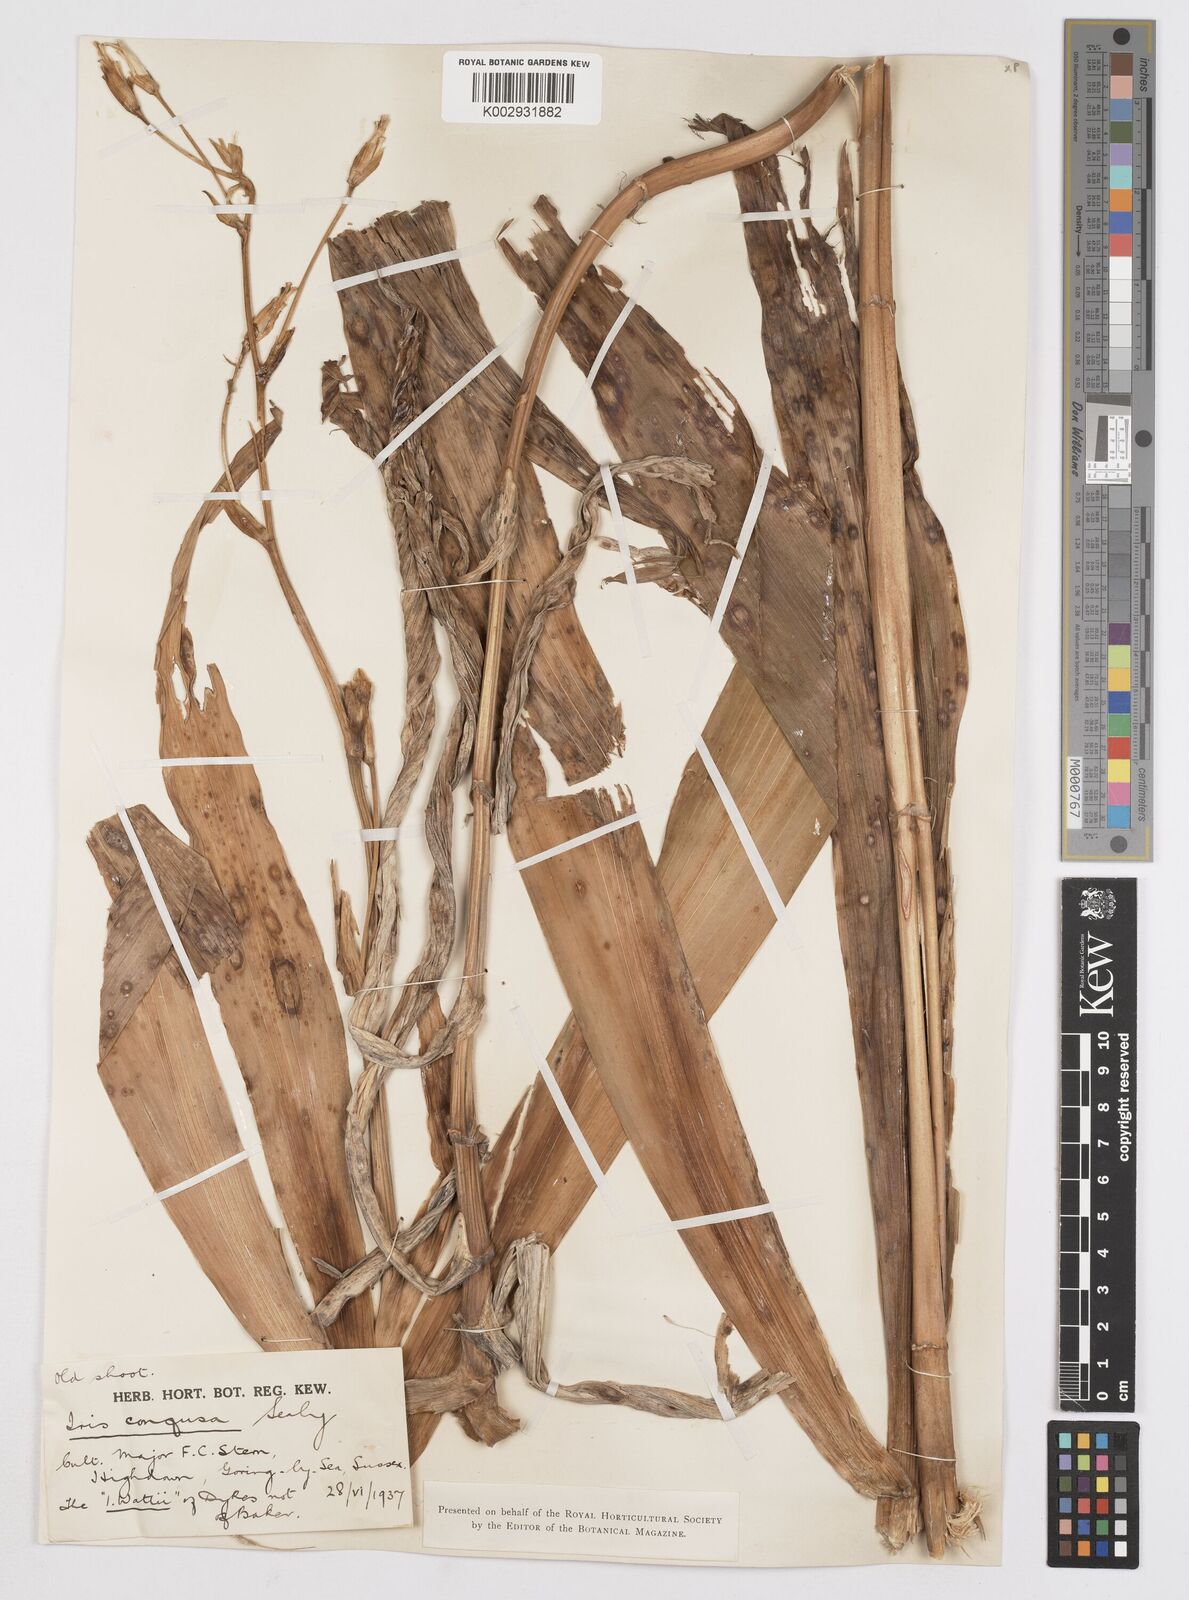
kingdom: Plantae
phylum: Tracheophyta
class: Liliopsida
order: Asparagales
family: Iridaceae
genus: Iris
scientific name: Iris confusa
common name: Flat bamboo-orchid
